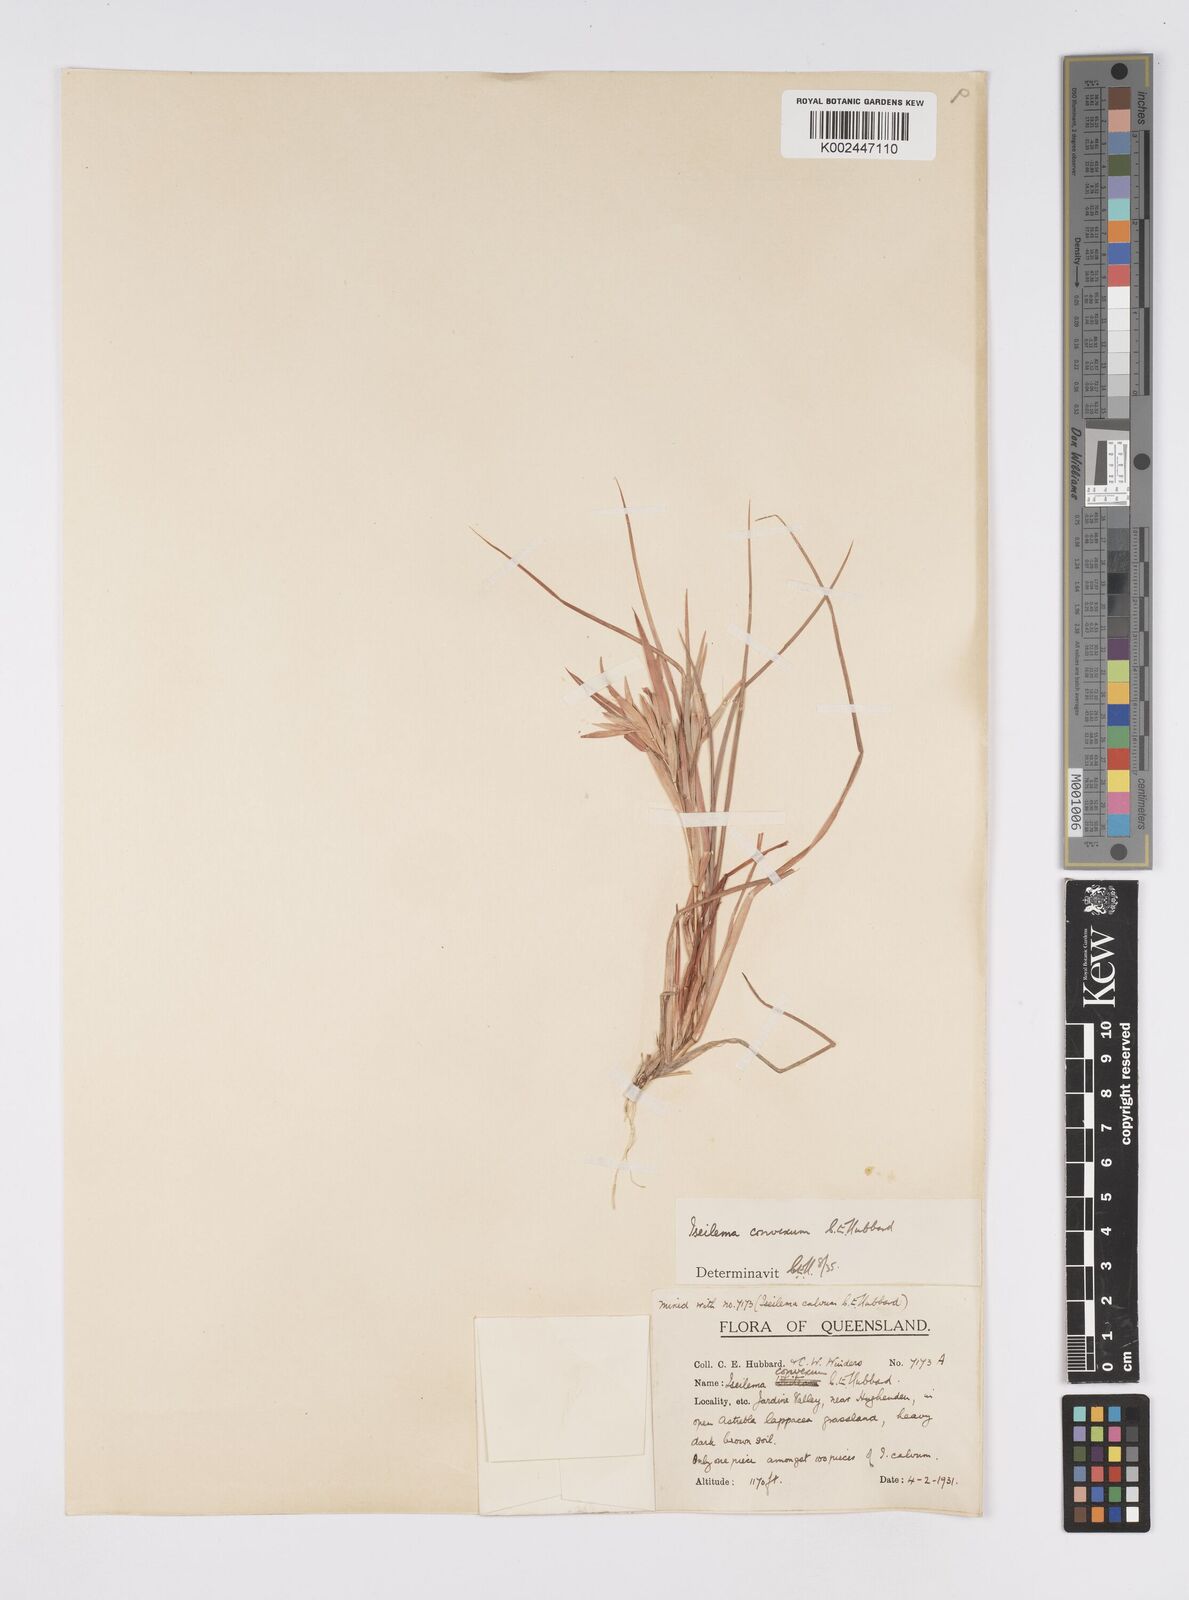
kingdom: Plantae
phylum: Tracheophyta
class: Liliopsida
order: Poales
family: Poaceae
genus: Iseilema
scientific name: Iseilema convexum
